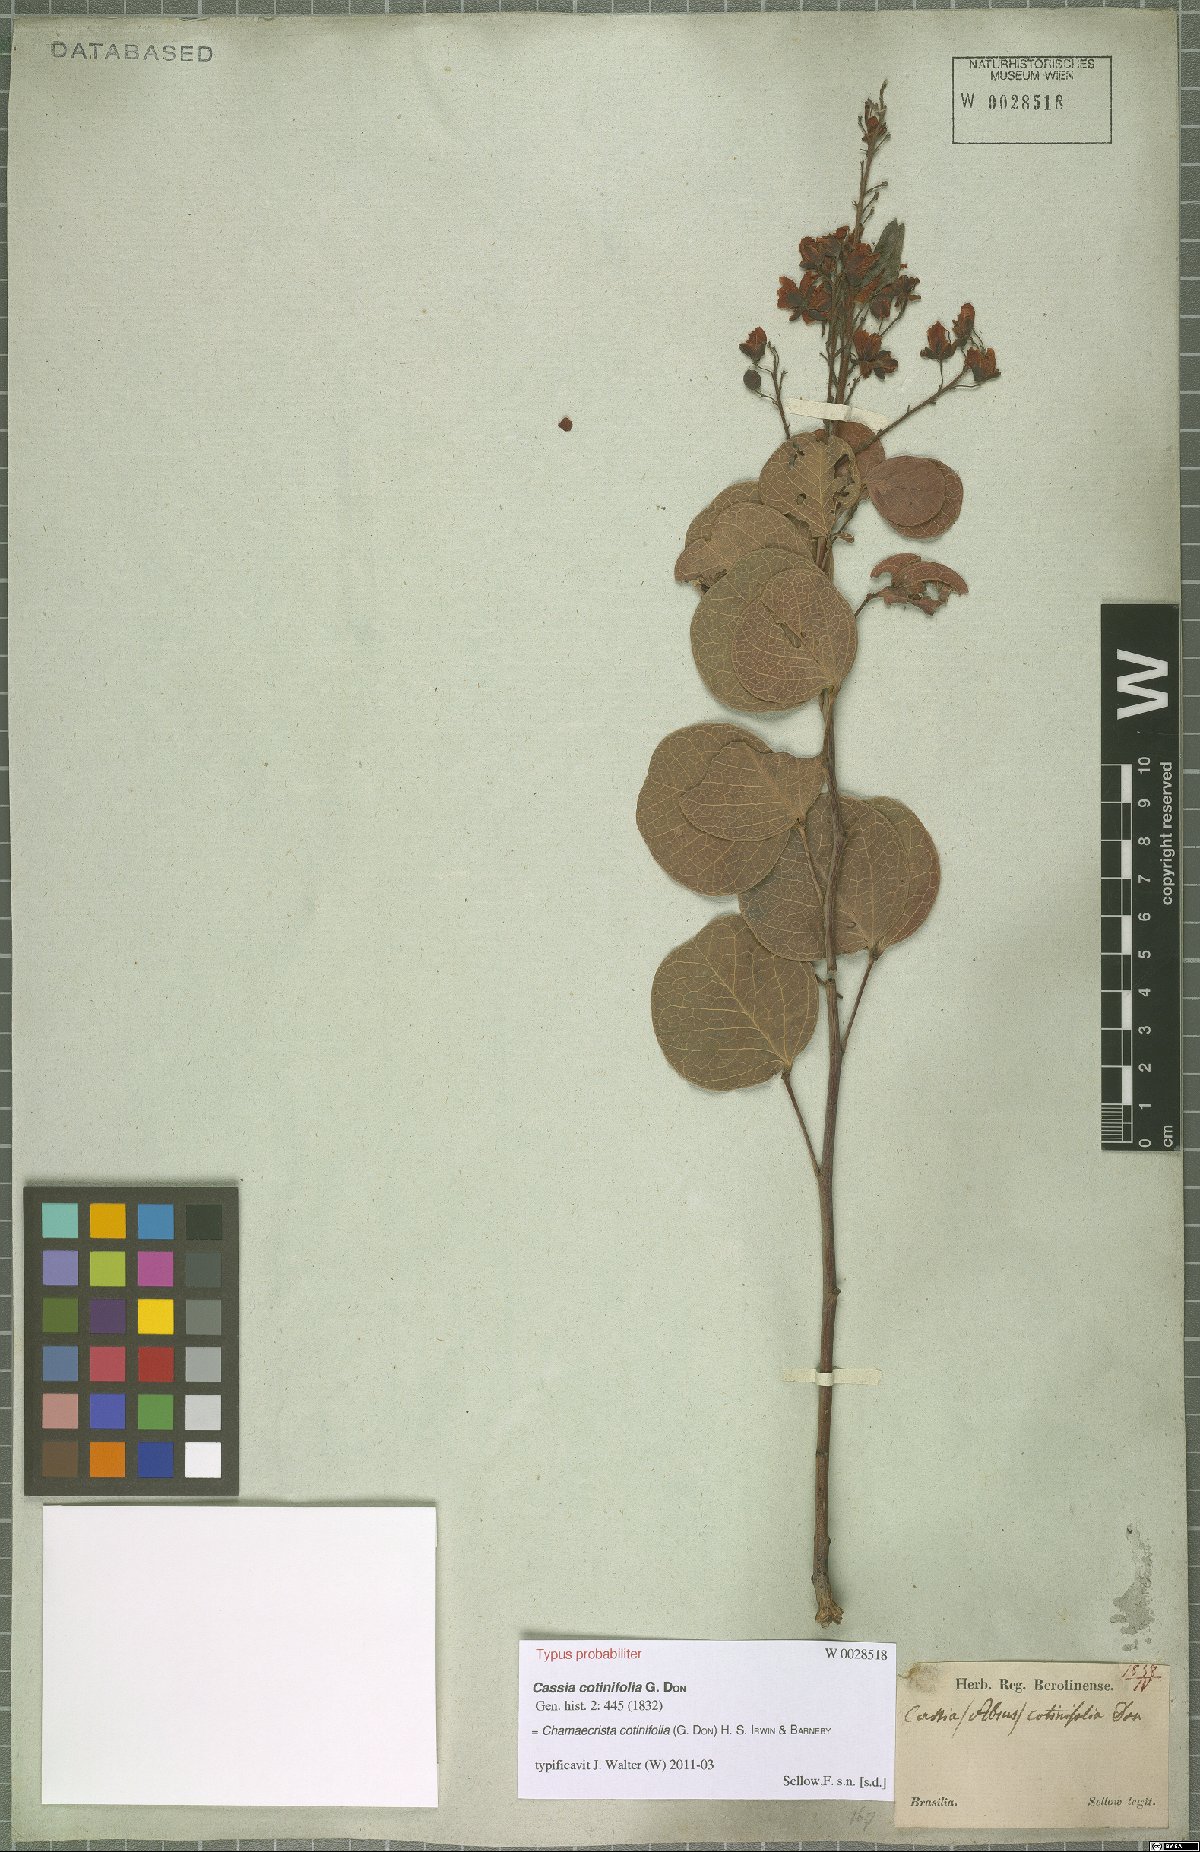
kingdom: Plantae
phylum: Tracheophyta
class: Magnoliopsida
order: Fabales
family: Fabaceae
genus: Chamaecrista
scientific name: Chamaecrista cotinifolia
